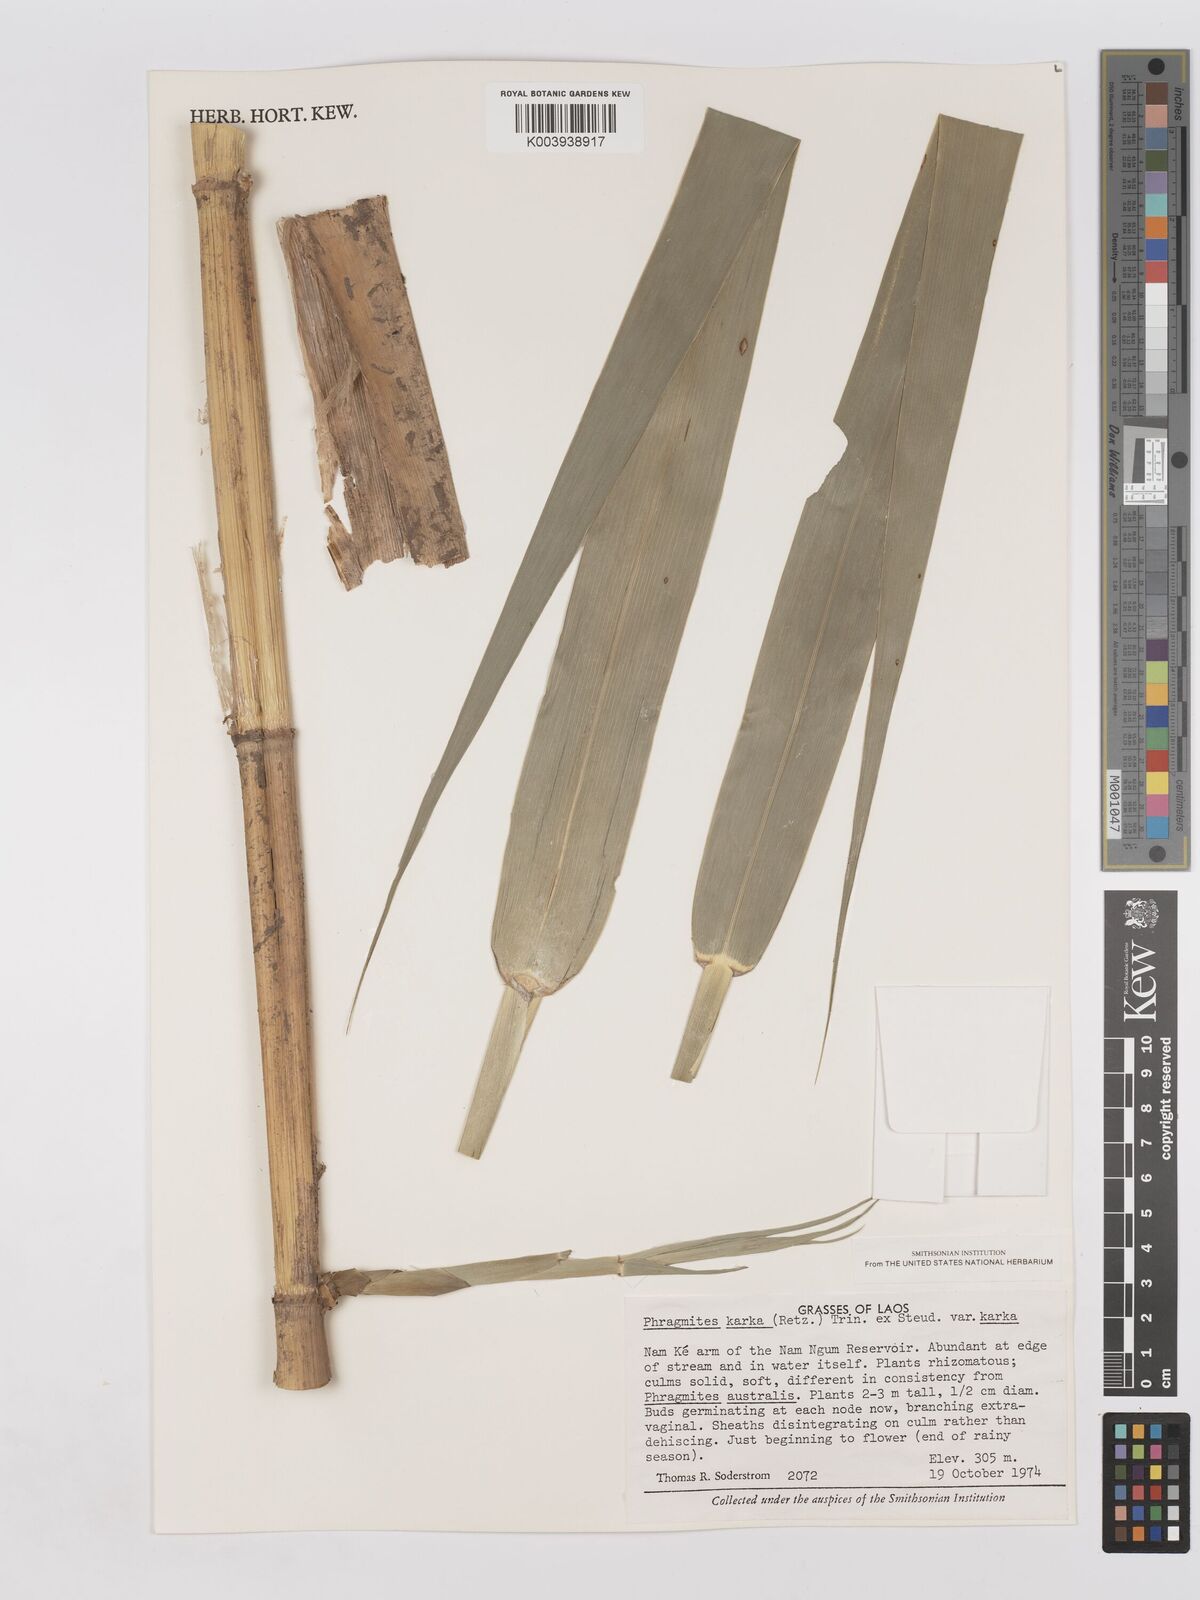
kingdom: Plantae
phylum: Tracheophyta
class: Liliopsida
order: Poales
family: Poaceae
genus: Phragmites
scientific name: Phragmites karka
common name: Tropical reed
